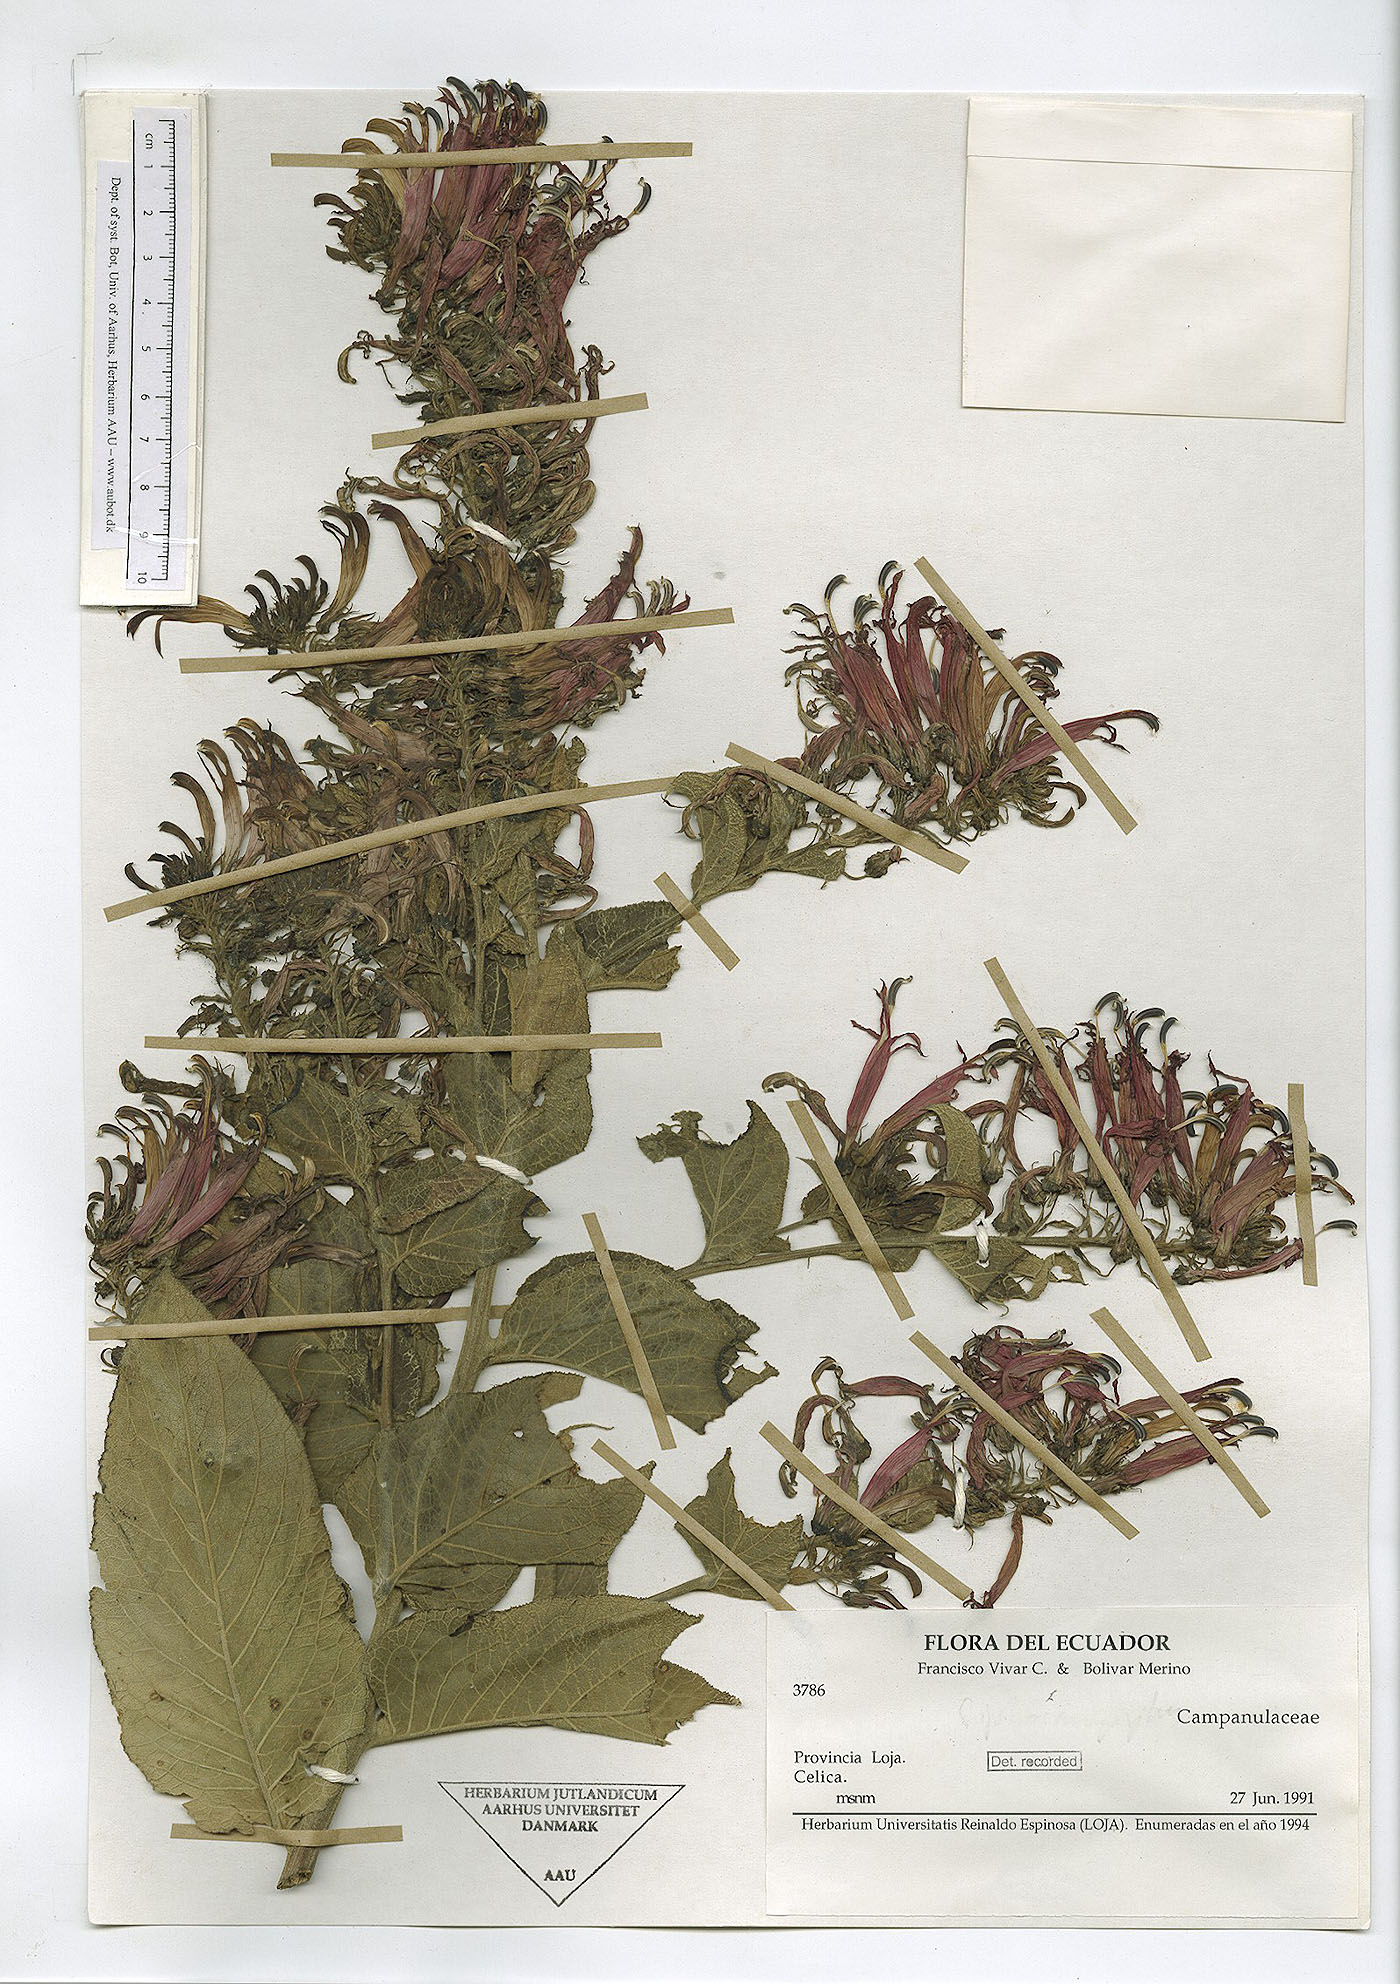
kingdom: Plantae
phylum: Tracheophyta
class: Magnoliopsida
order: Asterales
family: Campanulaceae
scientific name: Campanulaceae
